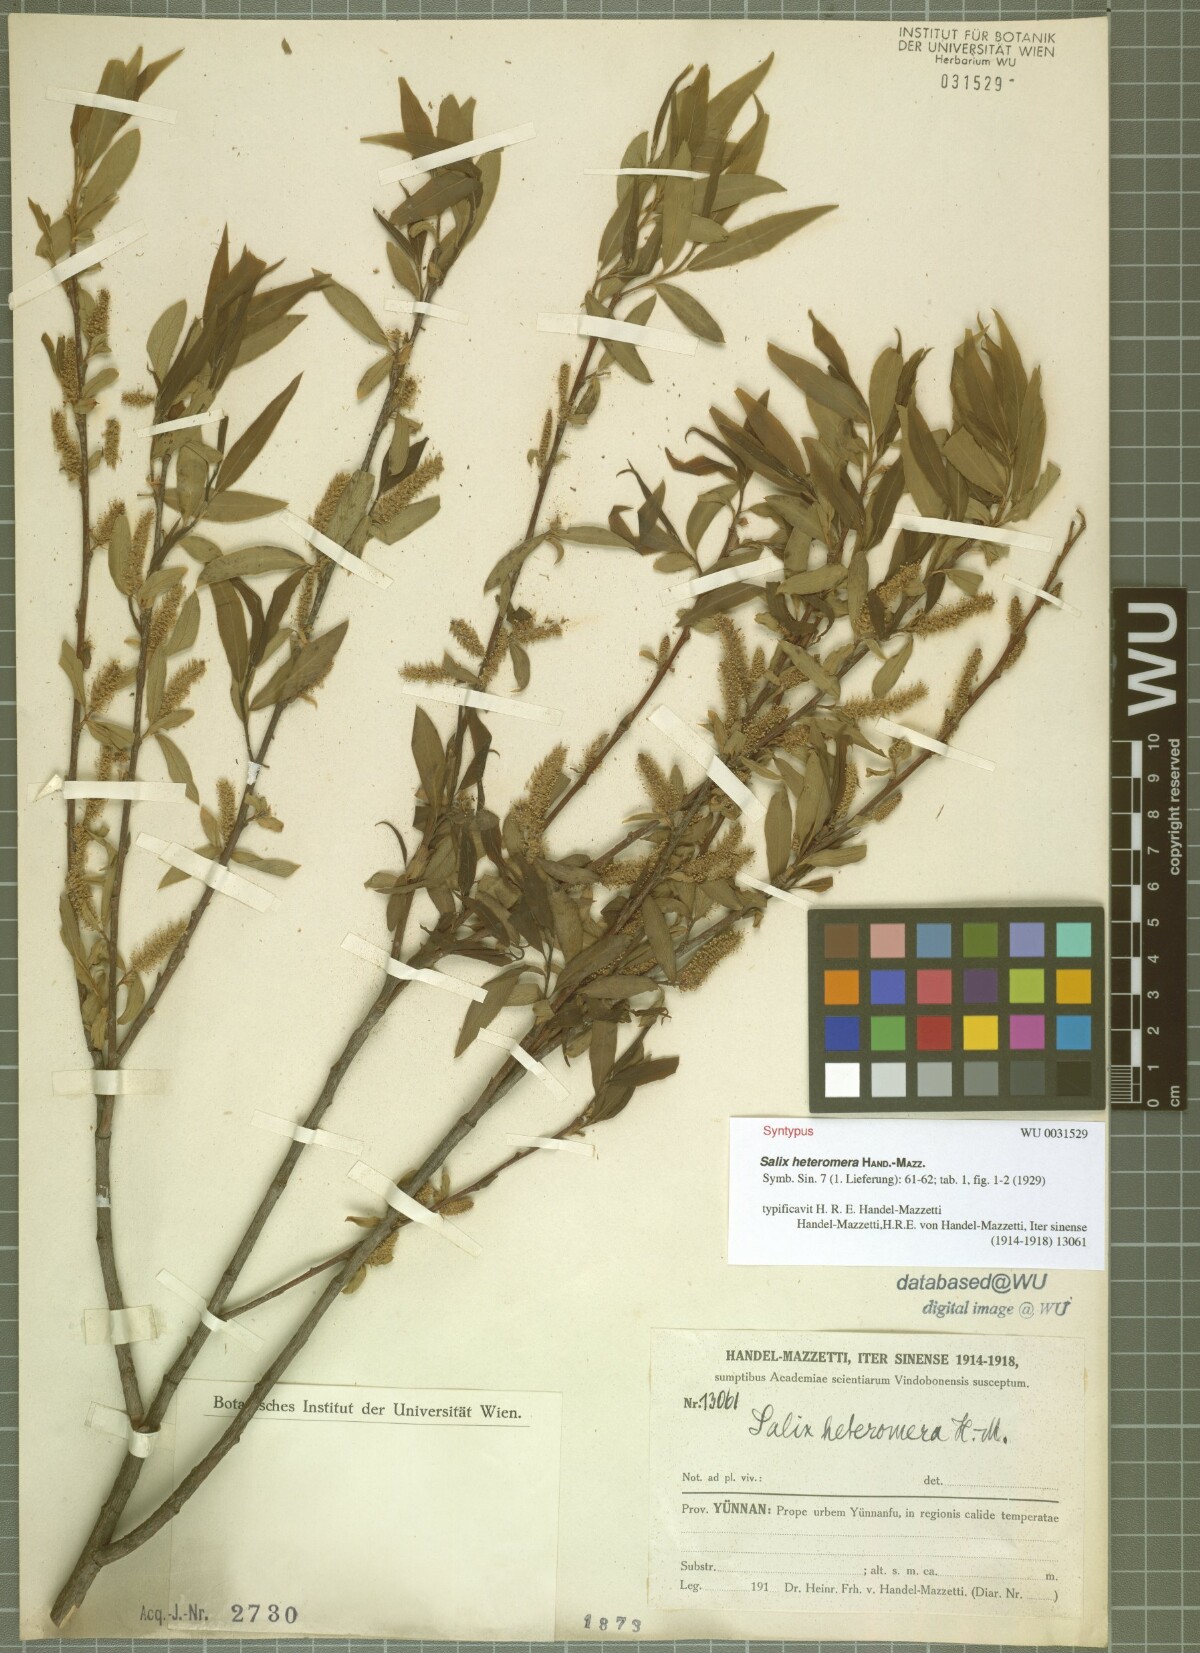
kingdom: Plantae
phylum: Tracheophyta
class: Magnoliopsida
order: Malpighiales
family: Salicaceae
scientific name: Salicaceae
